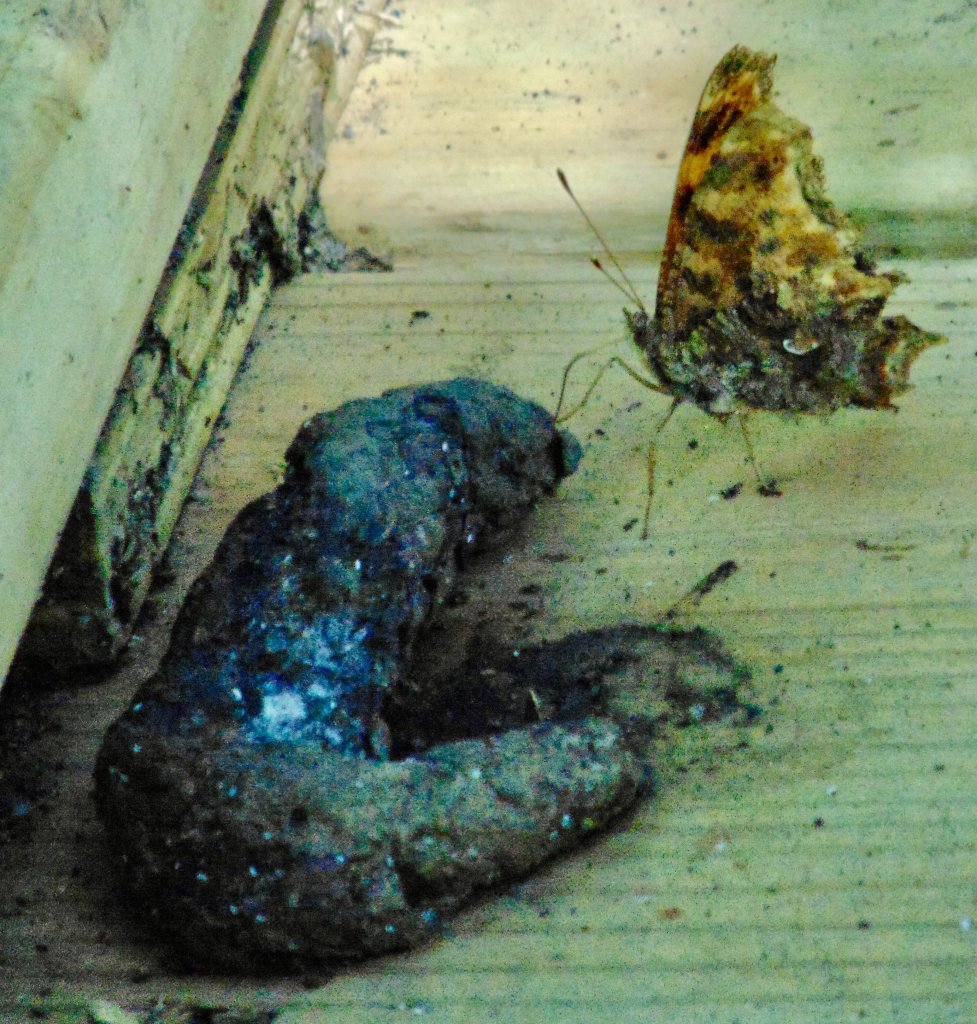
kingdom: Animalia
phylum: Arthropoda
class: Insecta
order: Lepidoptera
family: Nymphalidae
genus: Polygonia
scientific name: Polygonia comma
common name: Eastern Comma
